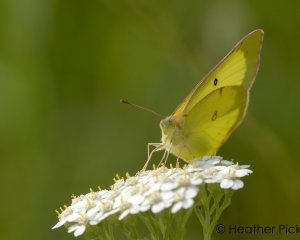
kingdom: Animalia
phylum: Arthropoda
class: Insecta
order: Lepidoptera
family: Pieridae
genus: Colias
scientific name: Colias philodice
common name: Clouded Sulphur
